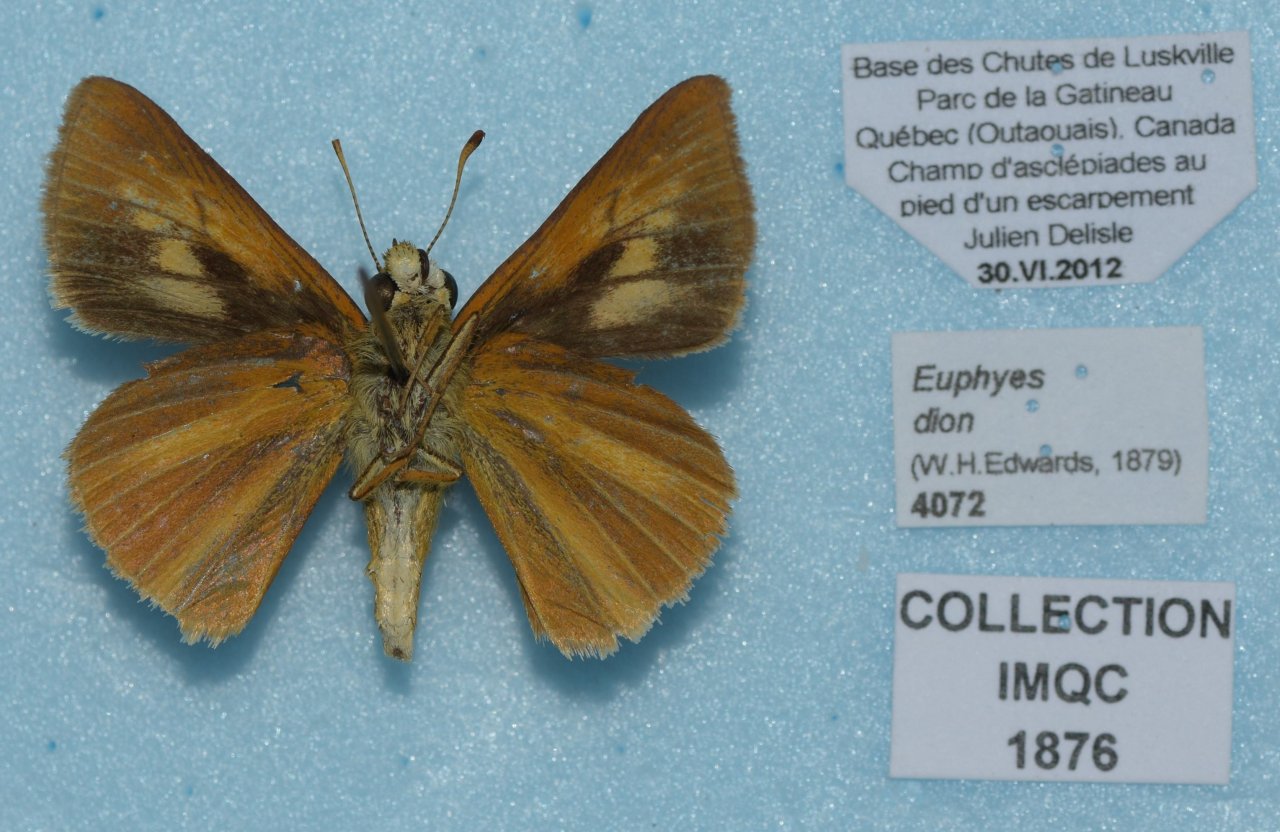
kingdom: Animalia
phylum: Arthropoda
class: Insecta
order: Lepidoptera
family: Hesperiidae
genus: Euphyes
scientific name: Euphyes dion
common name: Dion Skipper
